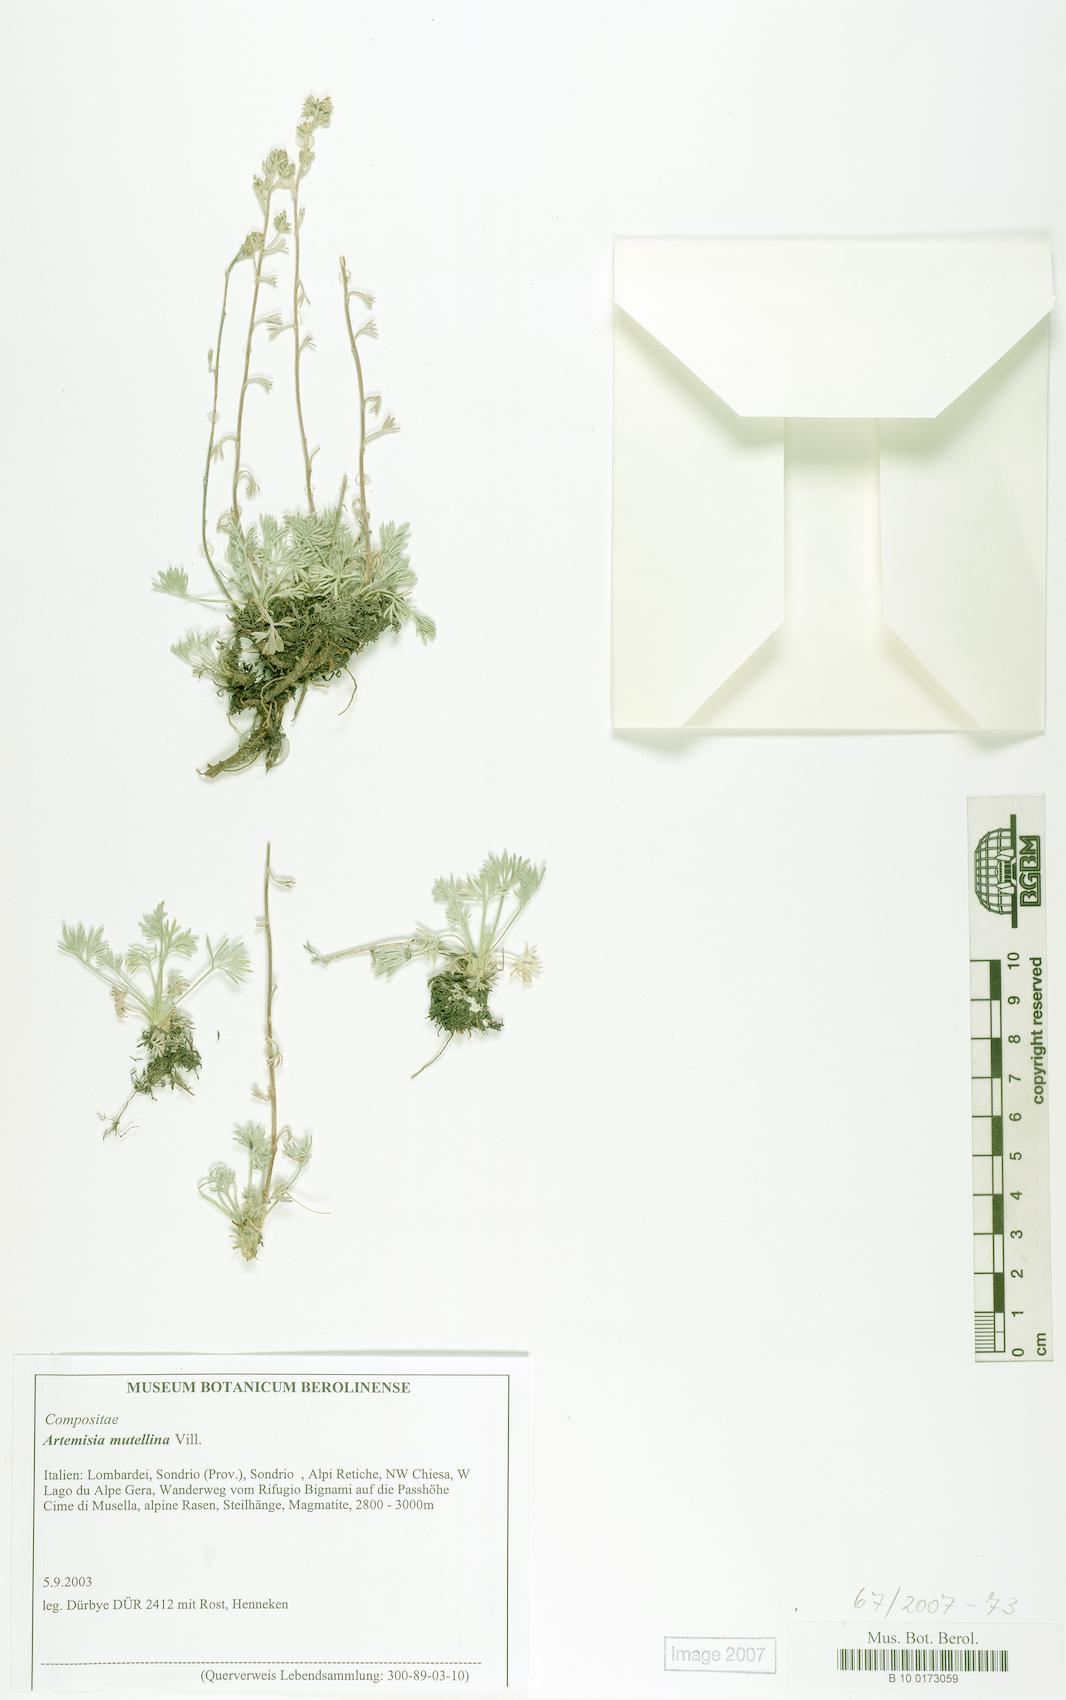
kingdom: Plantae
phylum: Tracheophyta
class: Magnoliopsida
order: Asterales
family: Asteraceae
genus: Artemisia
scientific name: Artemisia mutellina
